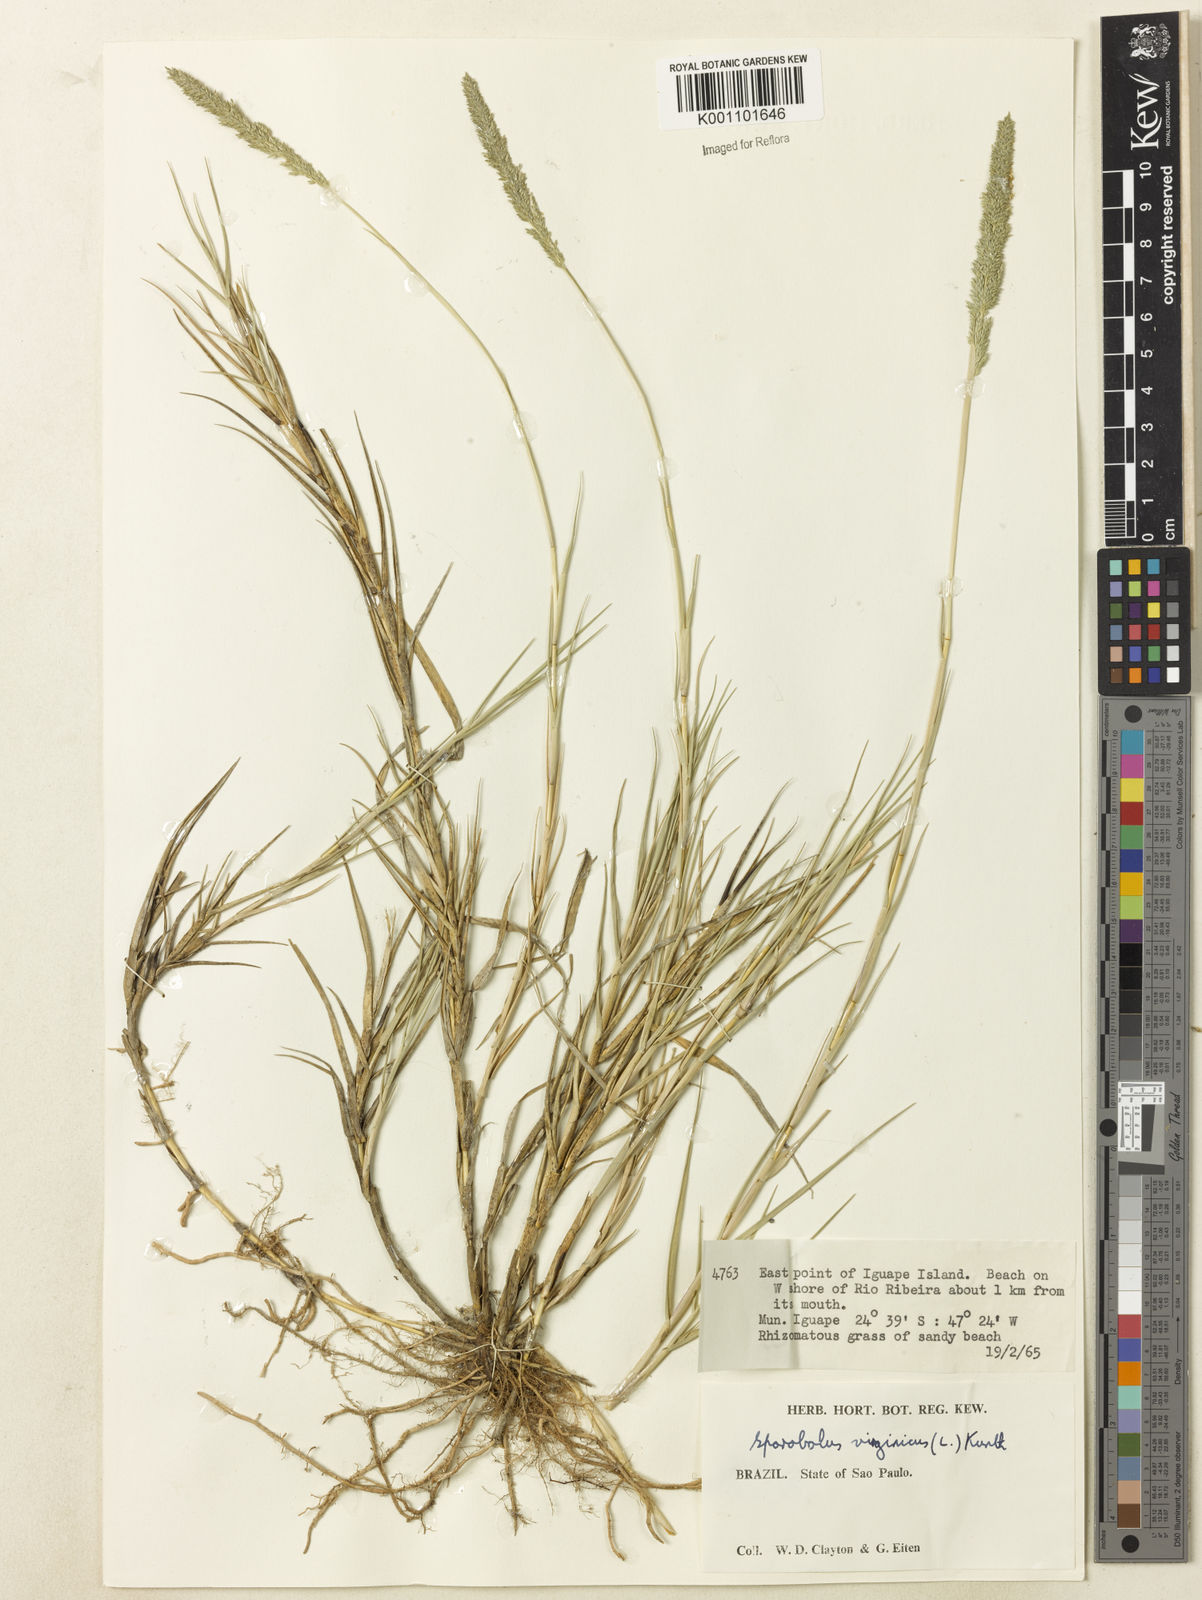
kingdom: Plantae
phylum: Tracheophyta
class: Liliopsida
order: Poales
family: Poaceae
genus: Sporobolus
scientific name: Sporobolus virginicus
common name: Beach dropseed
